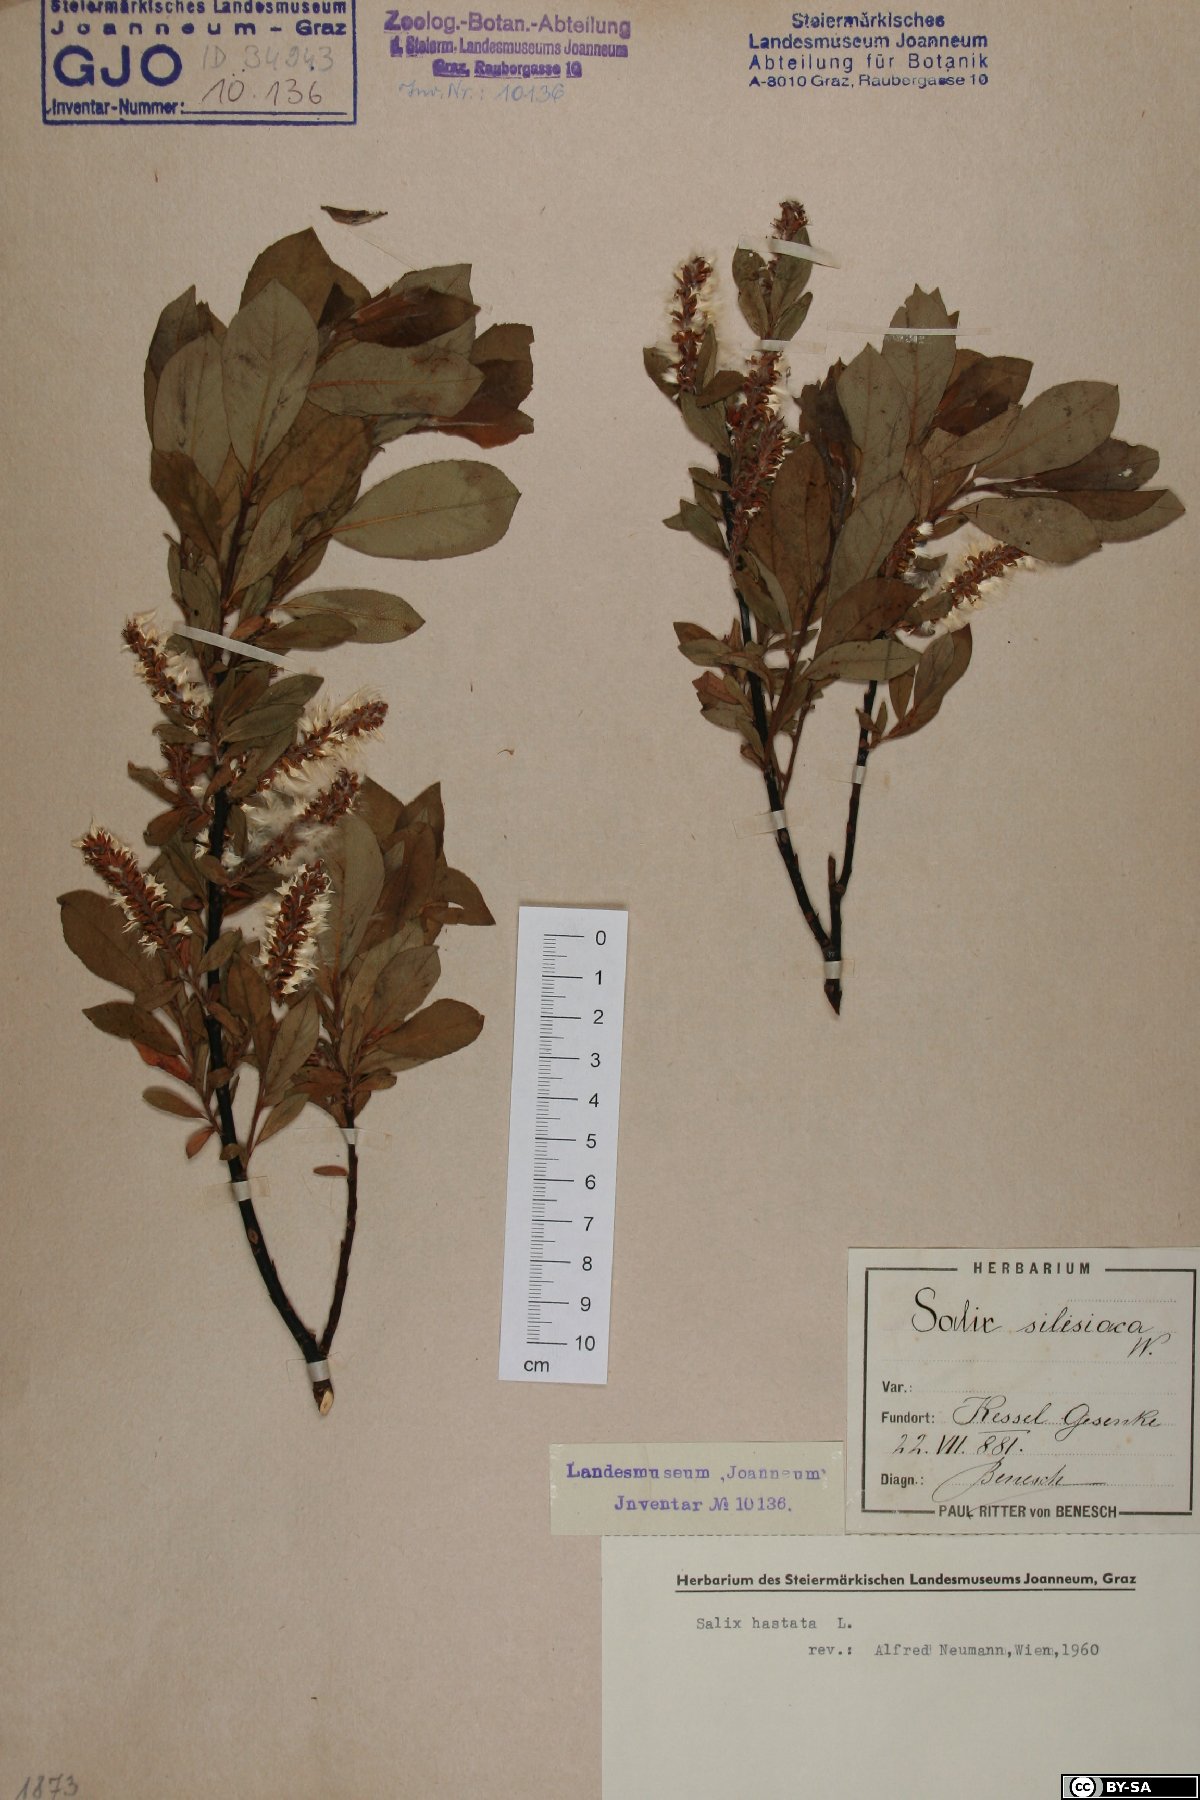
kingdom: Plantae
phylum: Tracheophyta
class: Magnoliopsida
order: Malpighiales
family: Salicaceae
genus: Salix
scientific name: Salix hastata
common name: Halberd willow
